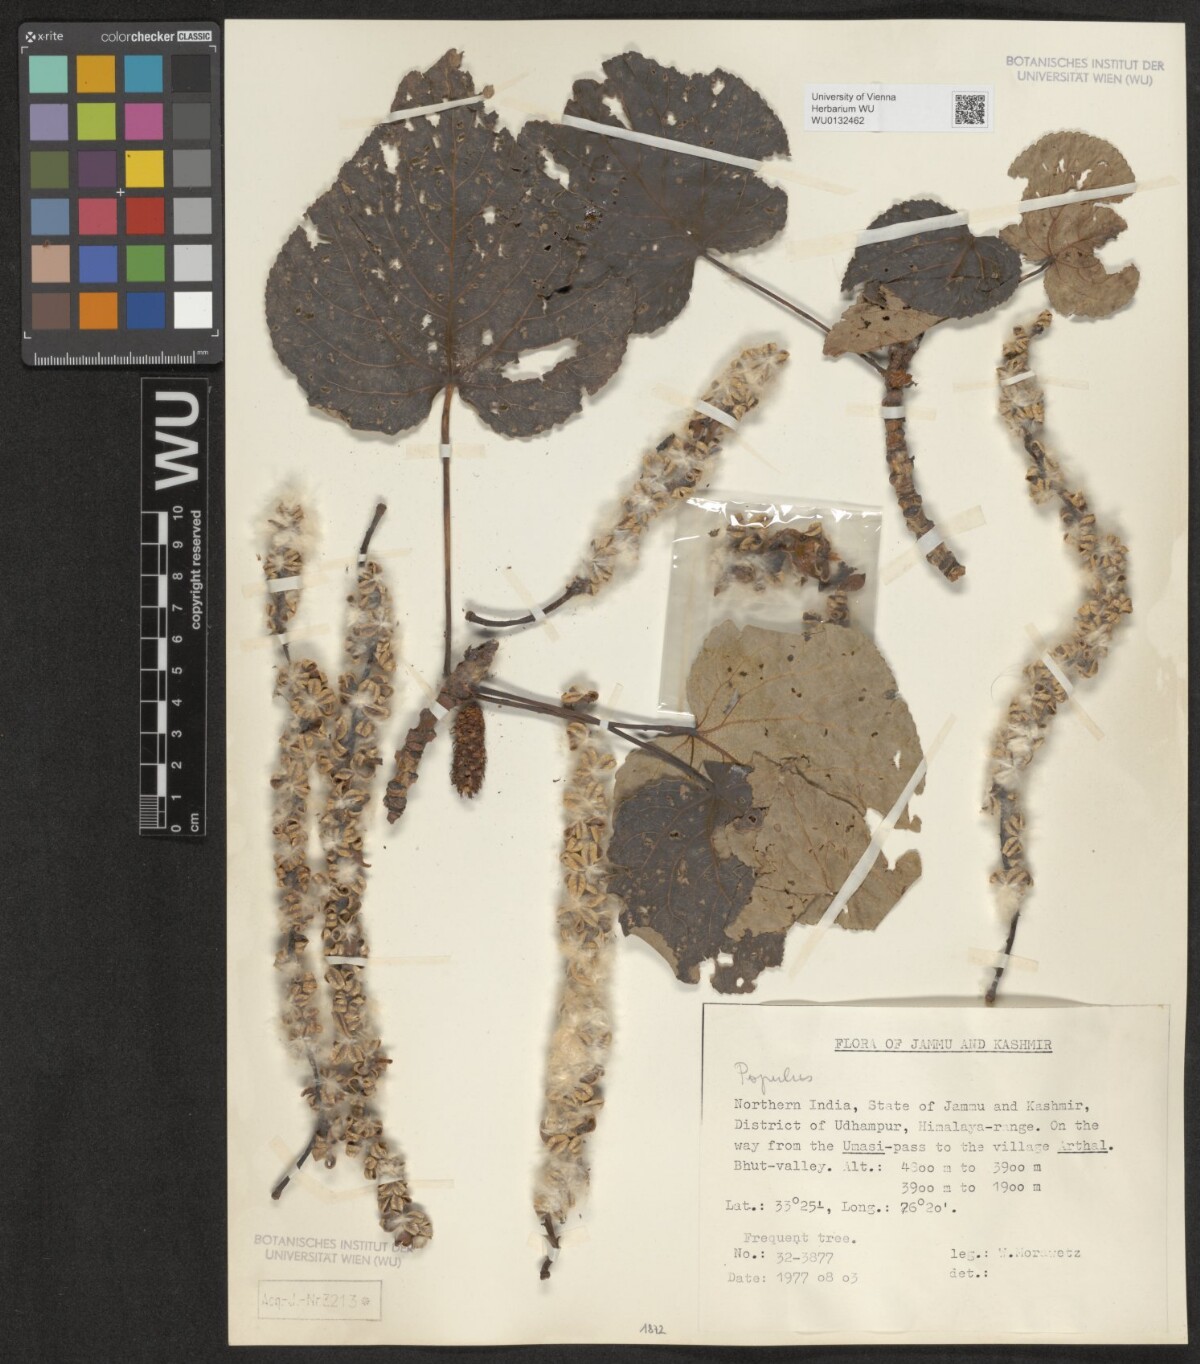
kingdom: Plantae
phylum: Tracheophyta
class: Magnoliopsida
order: Malpighiales
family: Salicaceae
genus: Populus
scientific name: Populus
